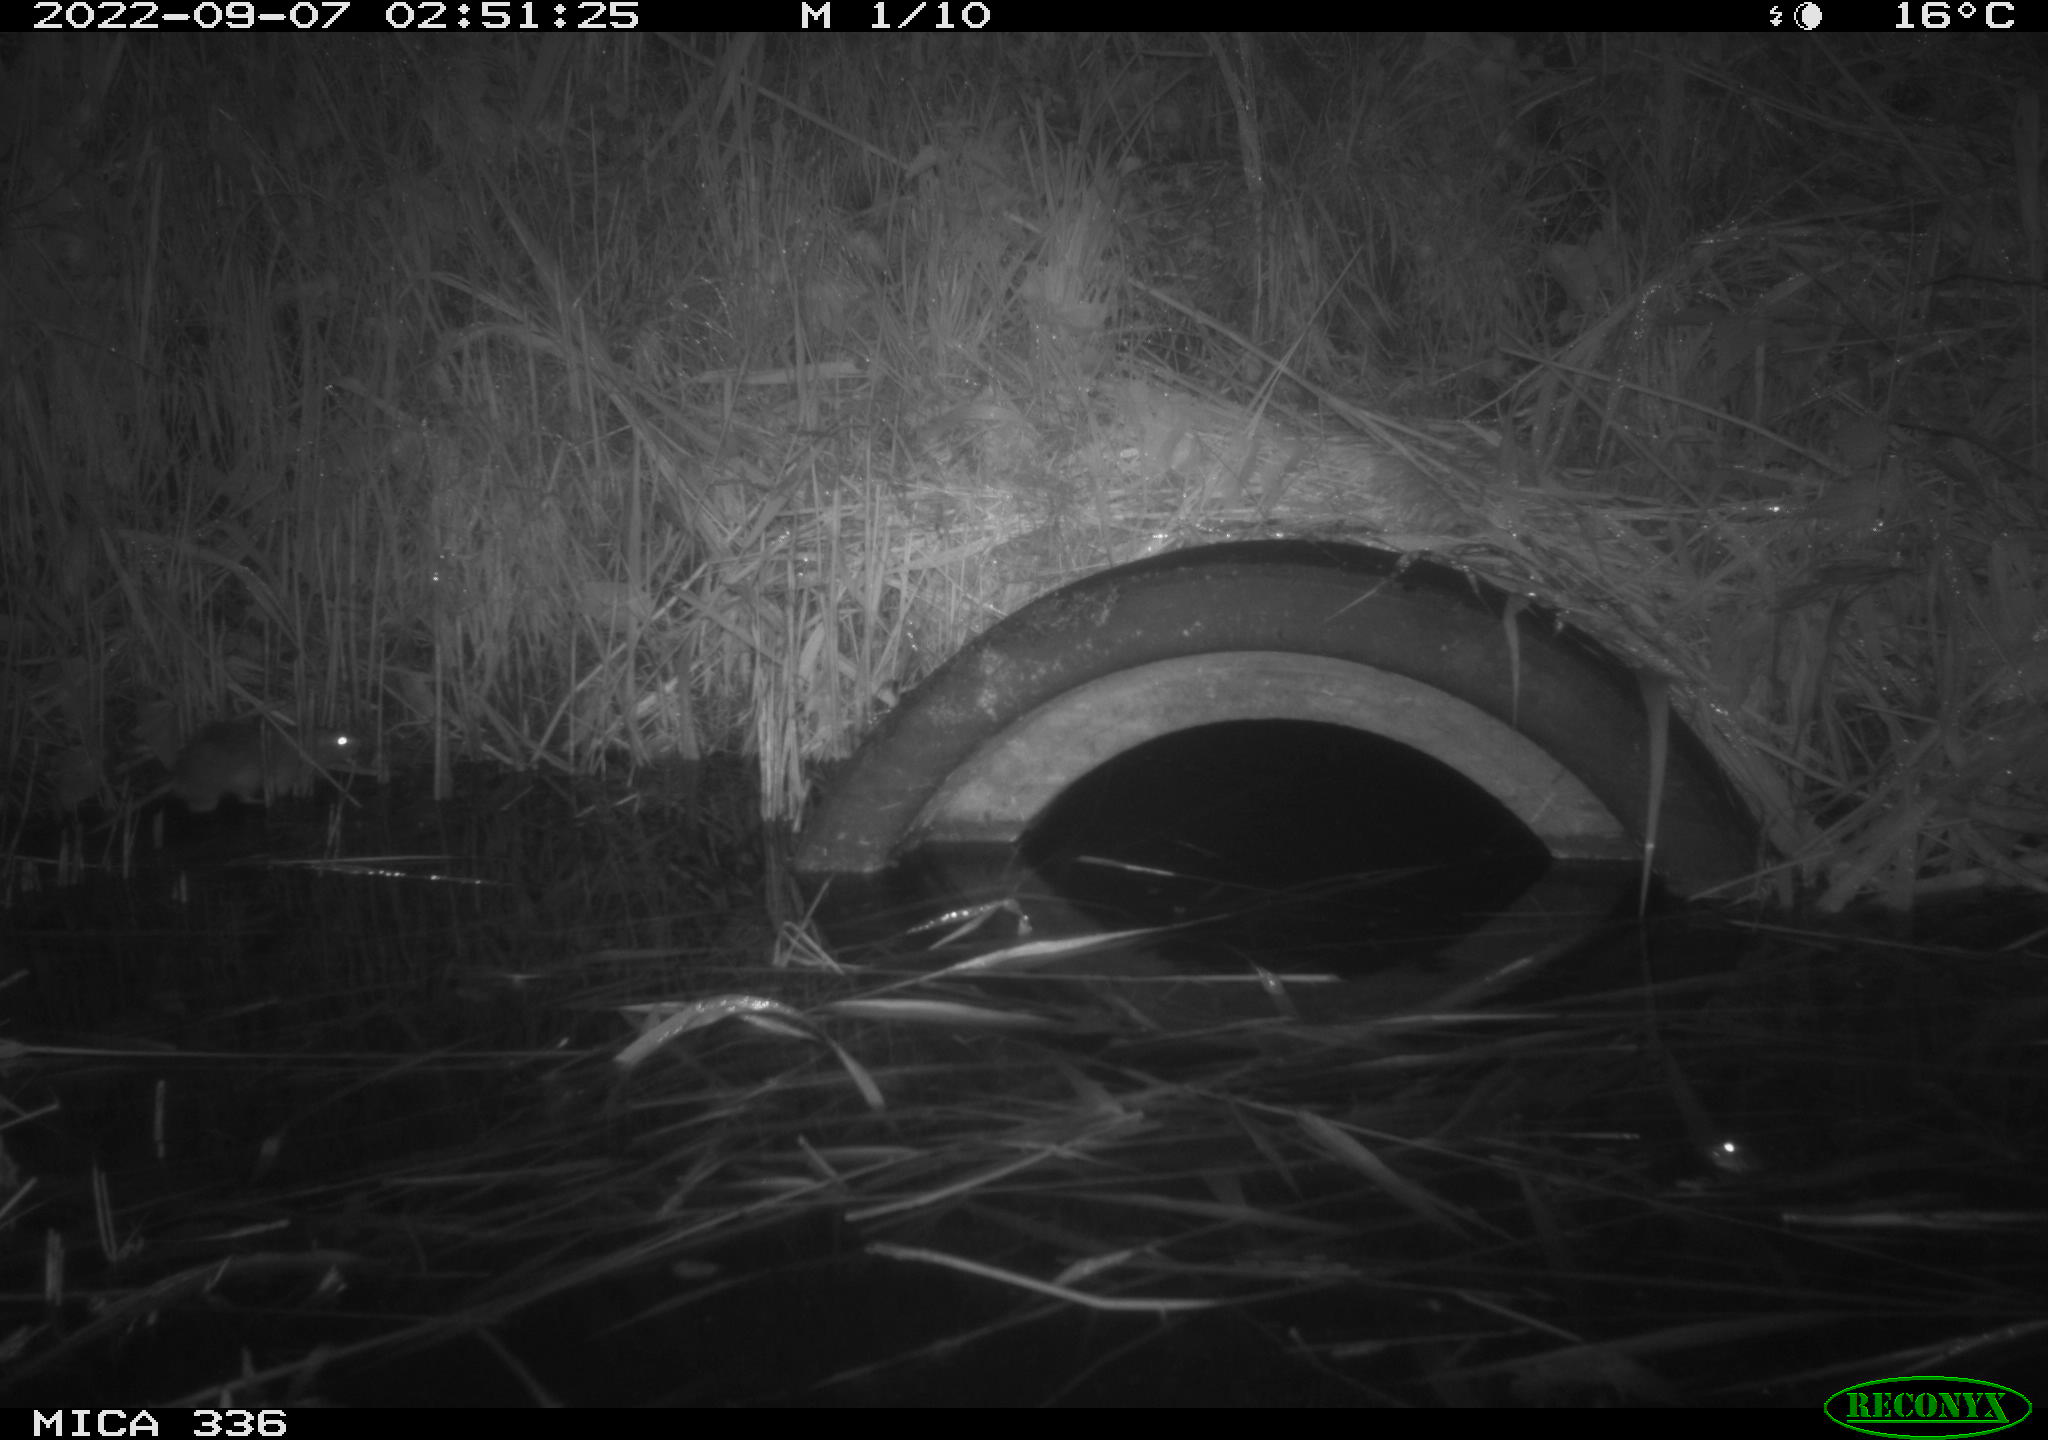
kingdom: Animalia
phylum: Chordata
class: Mammalia
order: Rodentia
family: Muridae
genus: Rattus
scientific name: Rattus norvegicus
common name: Brown rat
